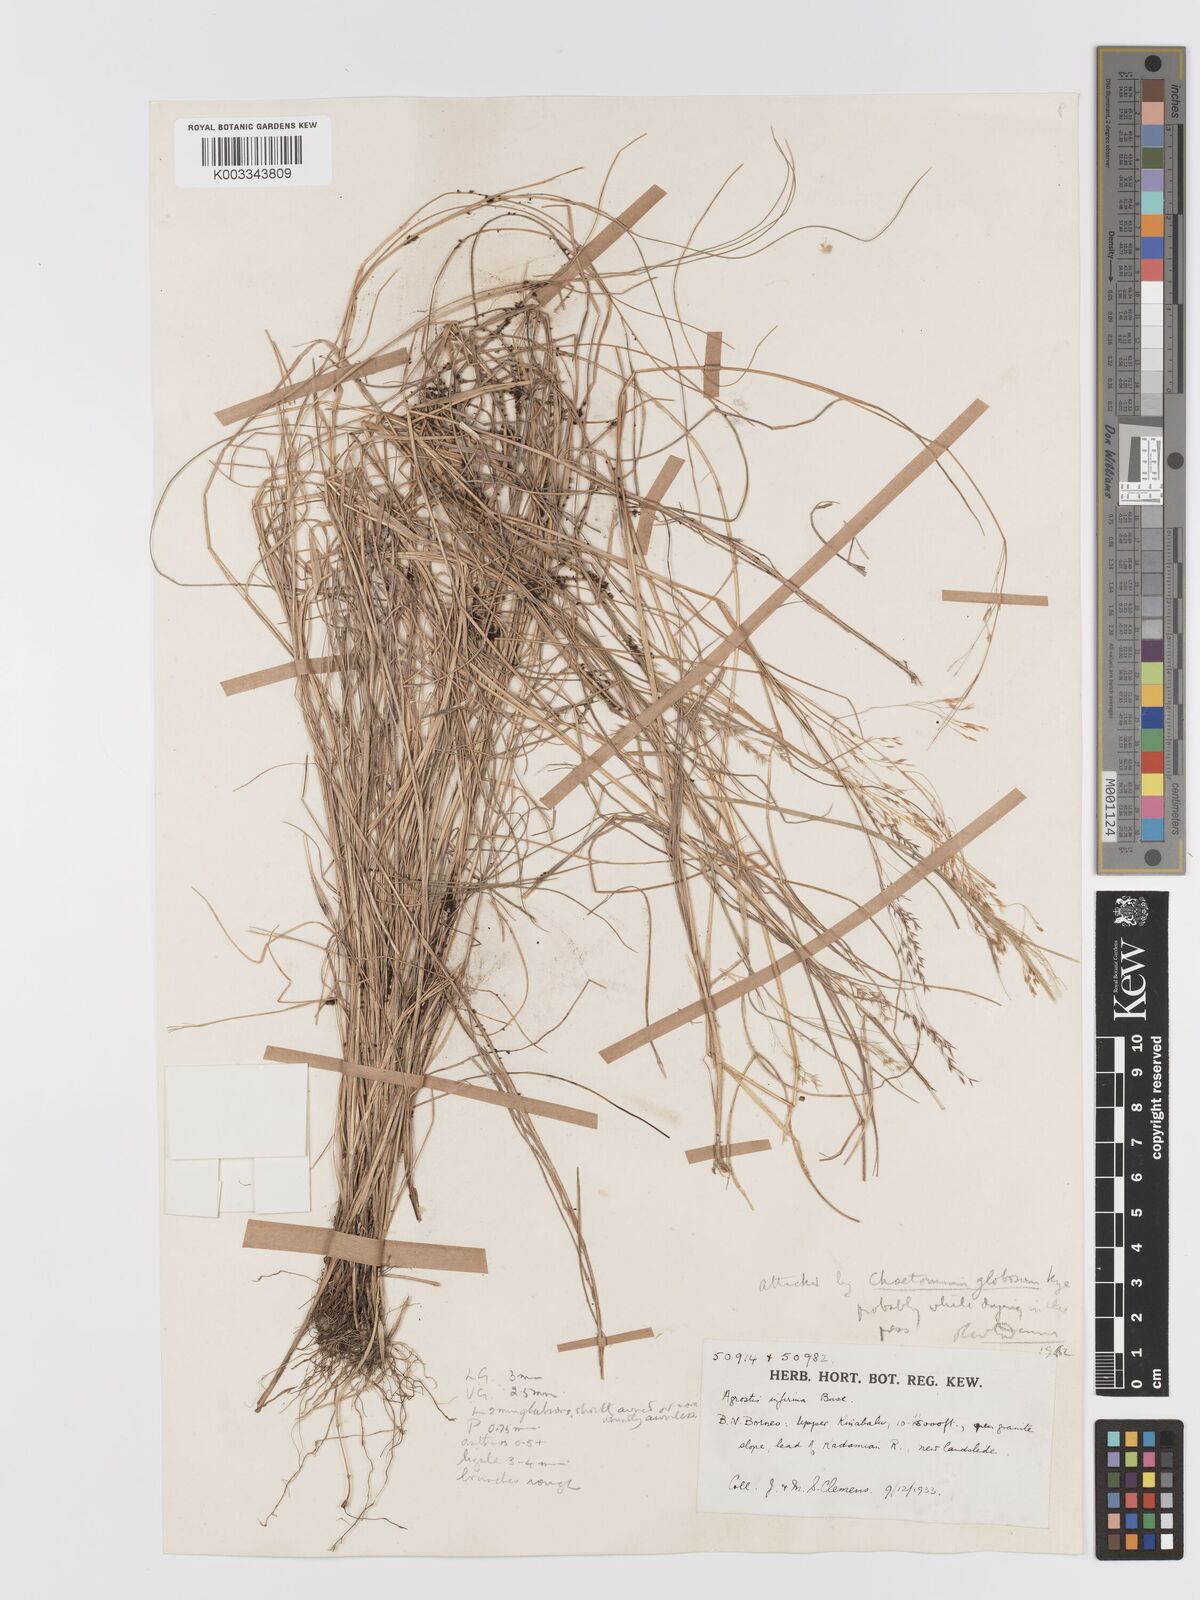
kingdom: Plantae
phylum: Tracheophyta
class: Liliopsida
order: Poales
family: Poaceae
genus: Agrostis
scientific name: Agrostis infirma
